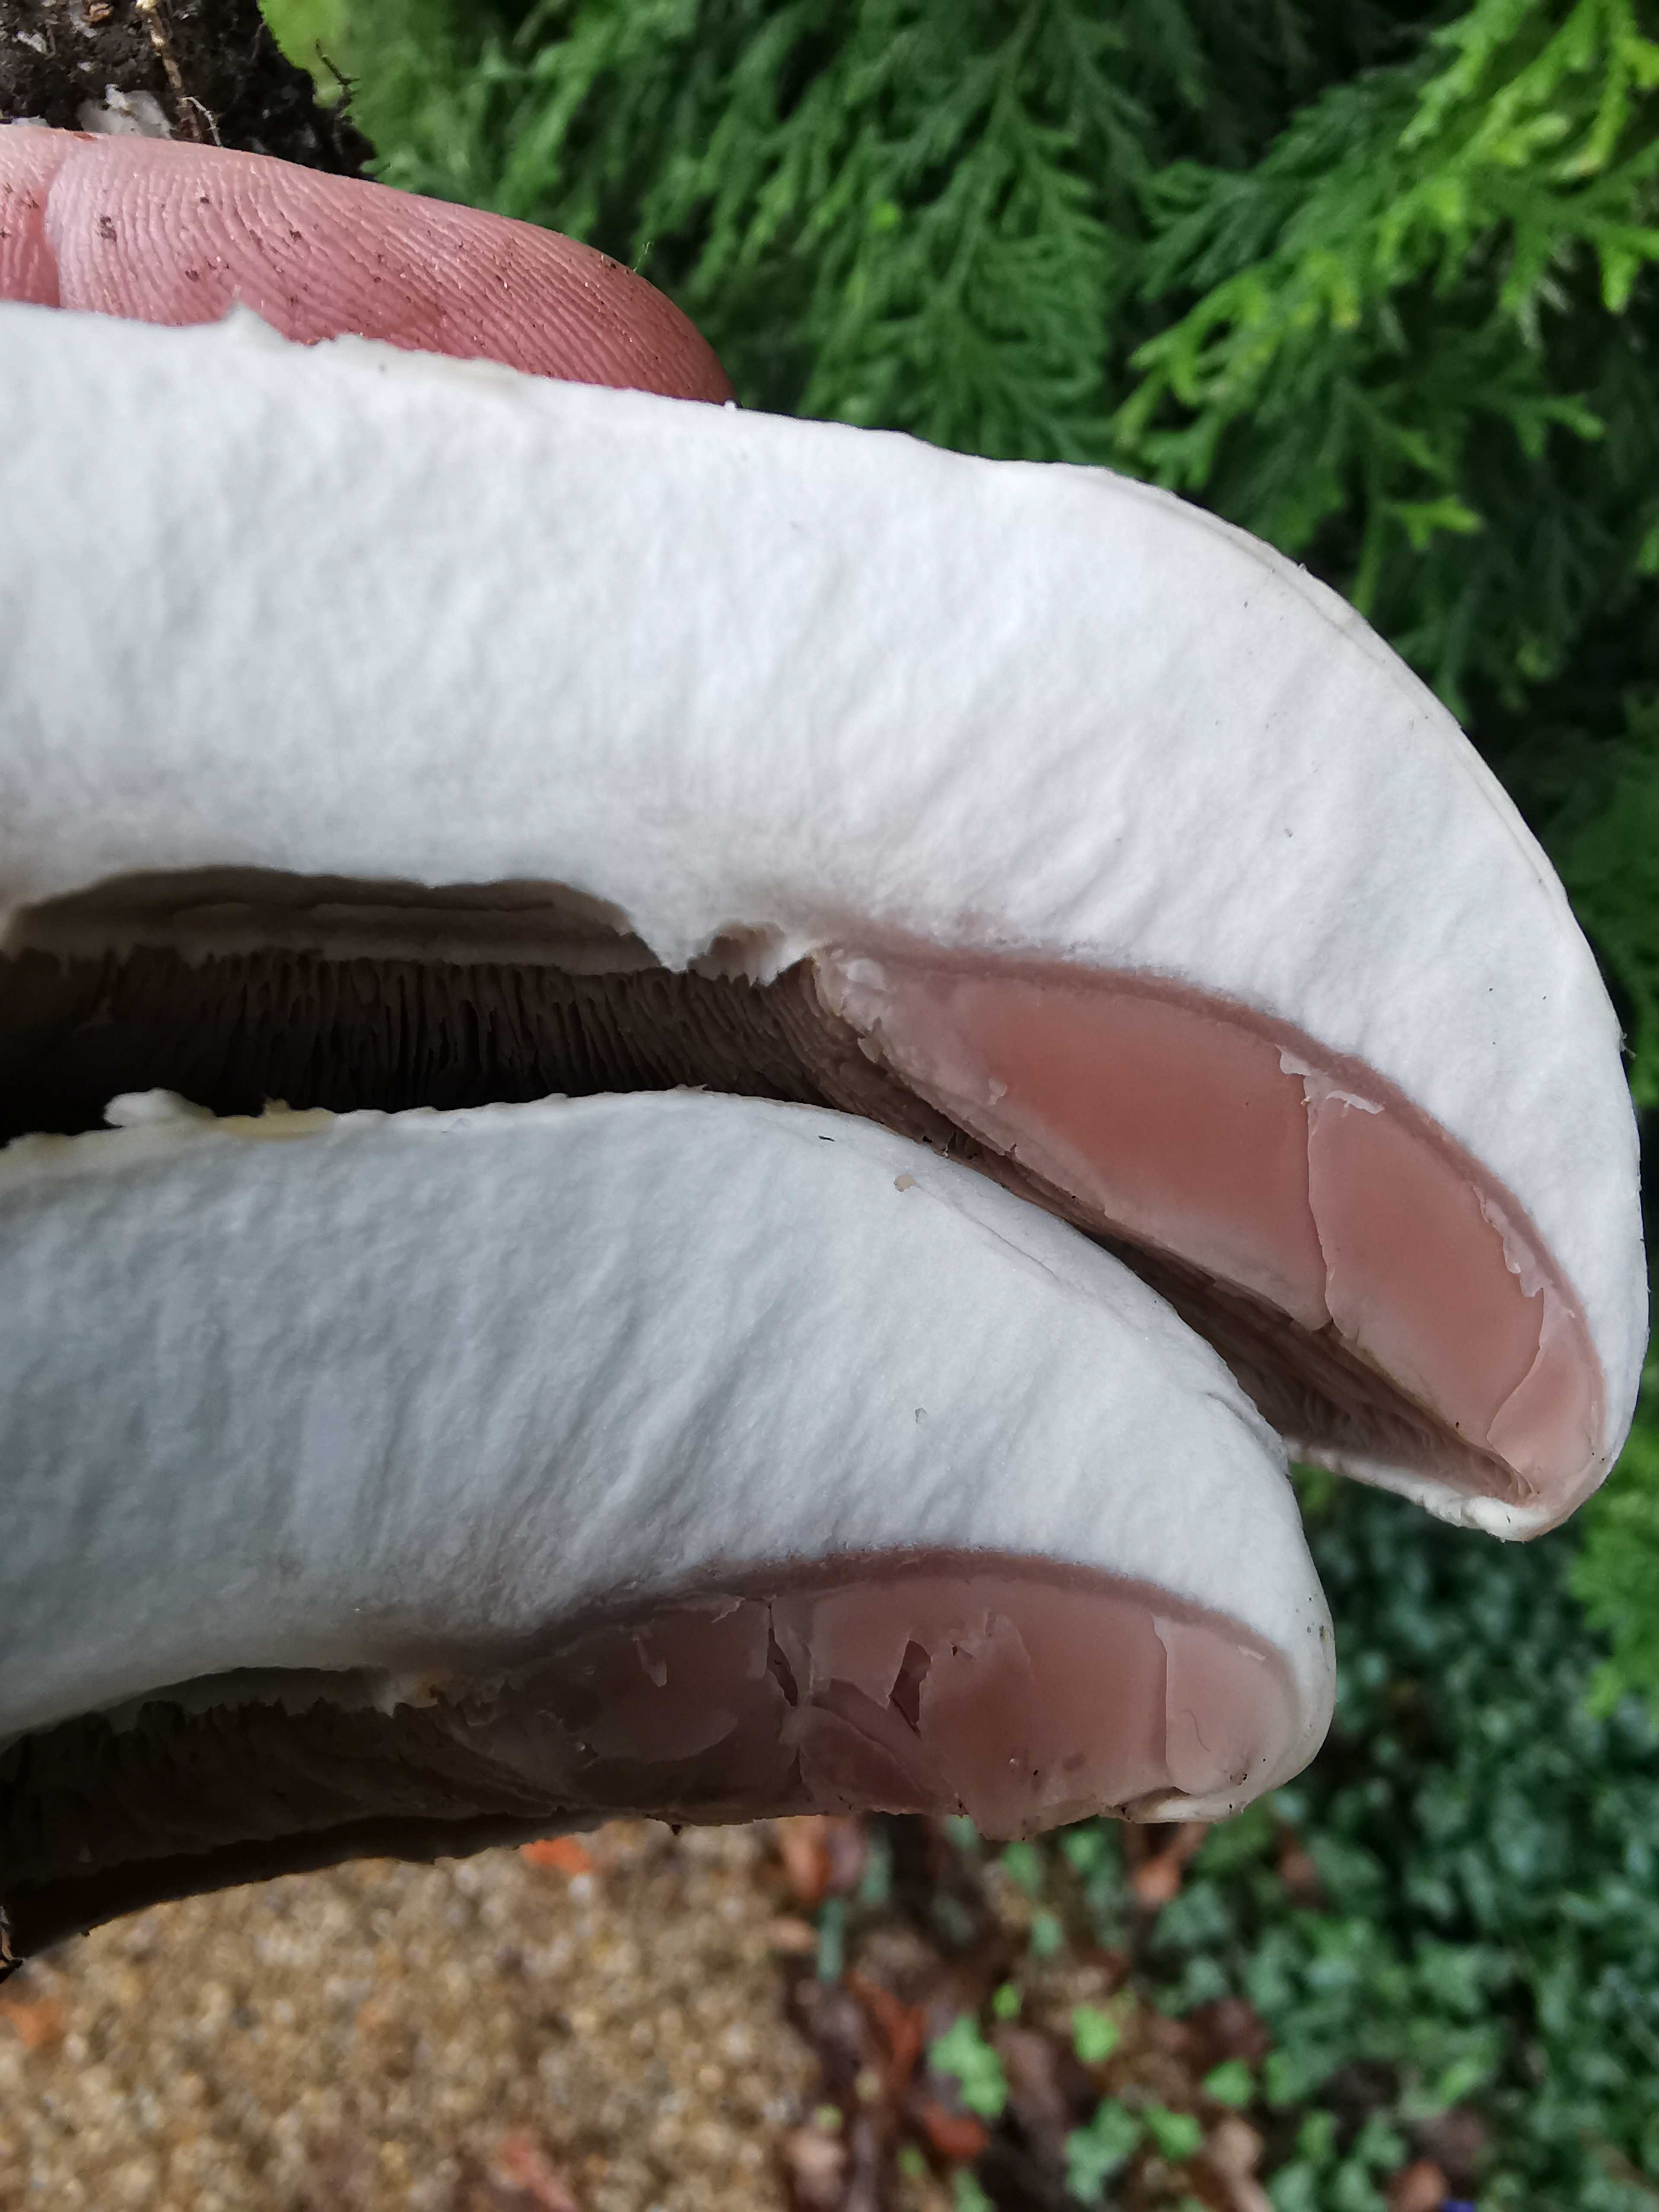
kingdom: Fungi
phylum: Basidiomycota
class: Agaricomycetes
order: Agaricales
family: Agaricaceae
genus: Agaricus
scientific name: Agaricus arvensis
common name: ager-champignon
